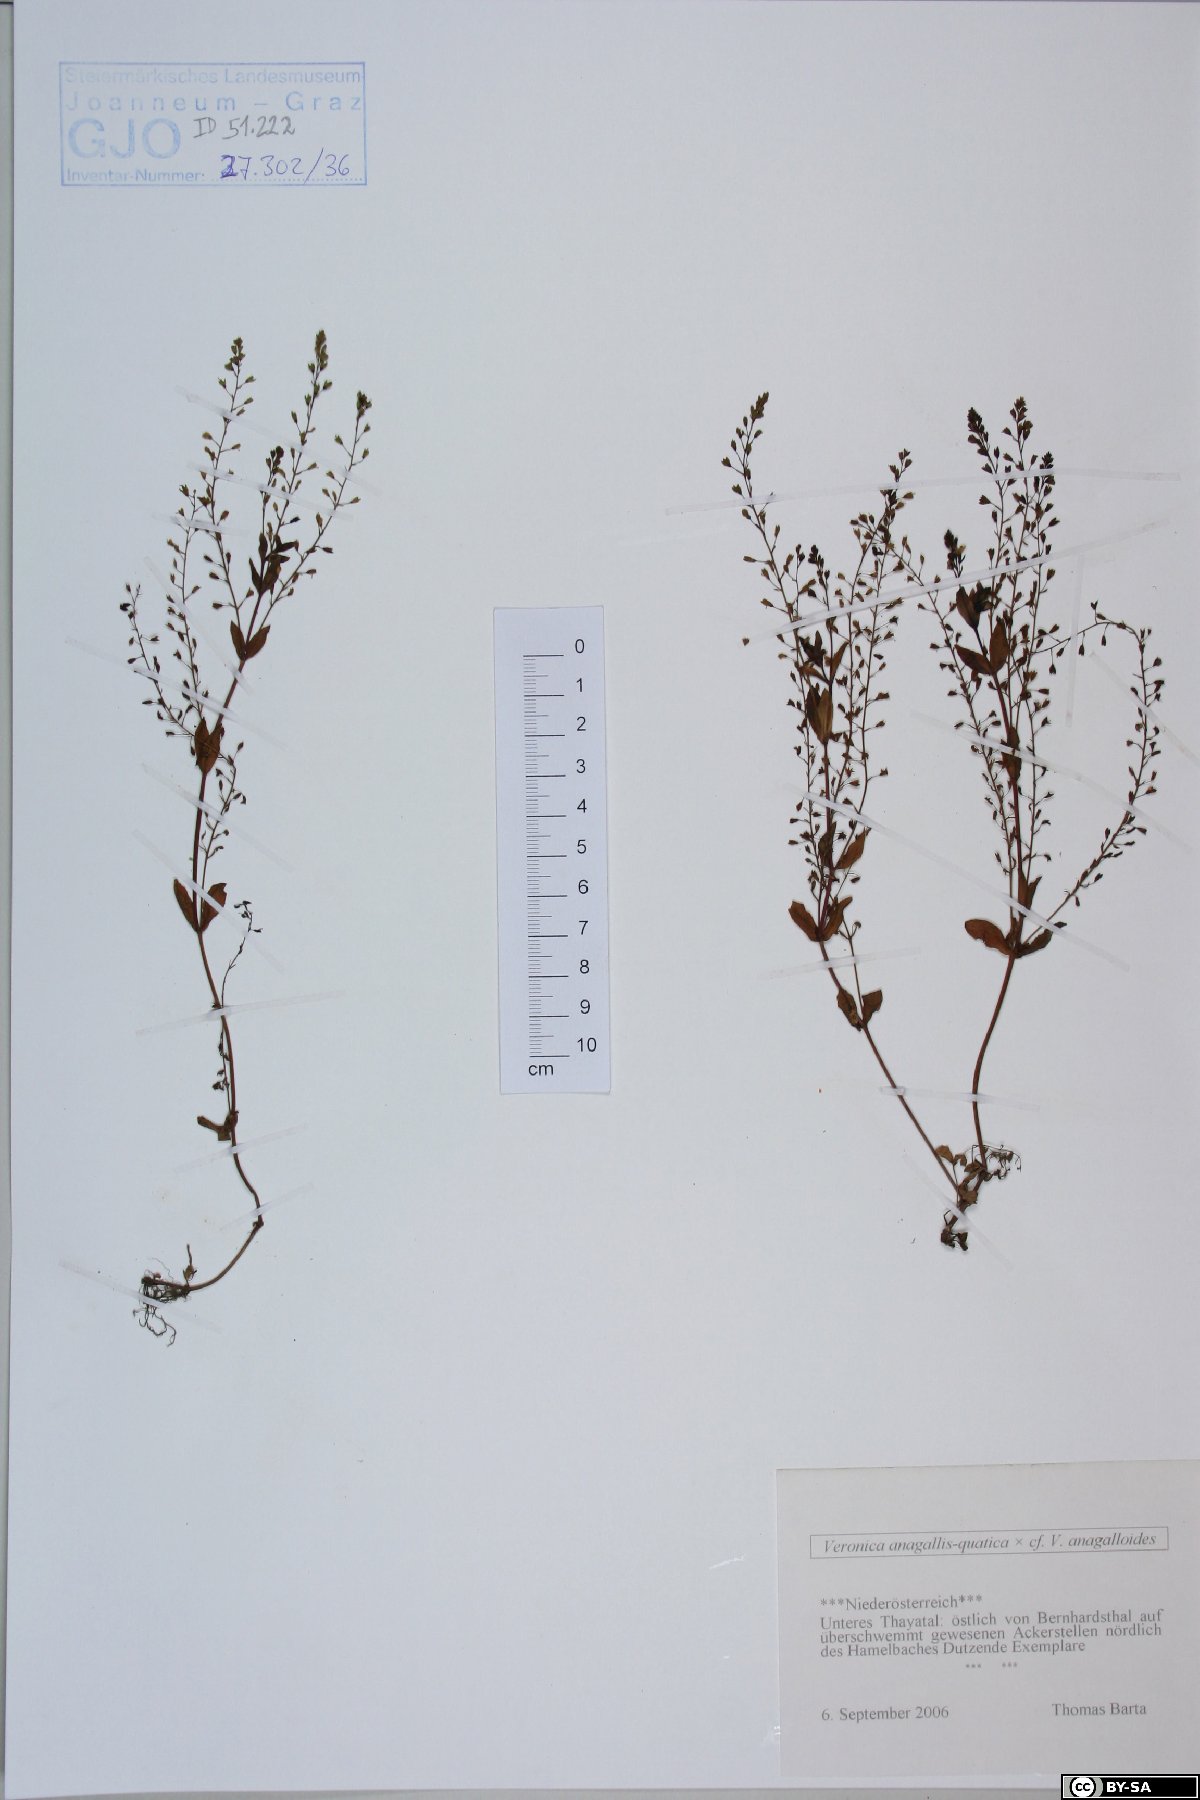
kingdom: Plantae
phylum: Tracheophyta
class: Magnoliopsida
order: Lamiales
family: Scrophulariaceae
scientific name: Scrophulariaceae
